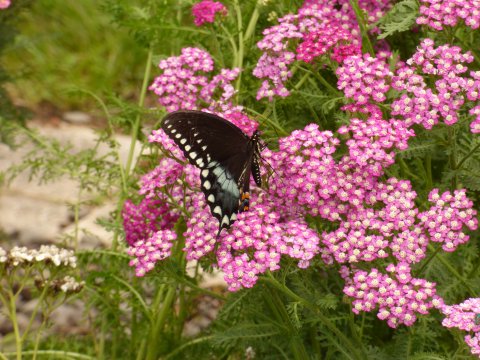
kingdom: Animalia
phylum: Arthropoda
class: Insecta
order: Lepidoptera
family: Papilionidae
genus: Pterourus
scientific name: Pterourus troilus
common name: Spicebush Swallowtail
